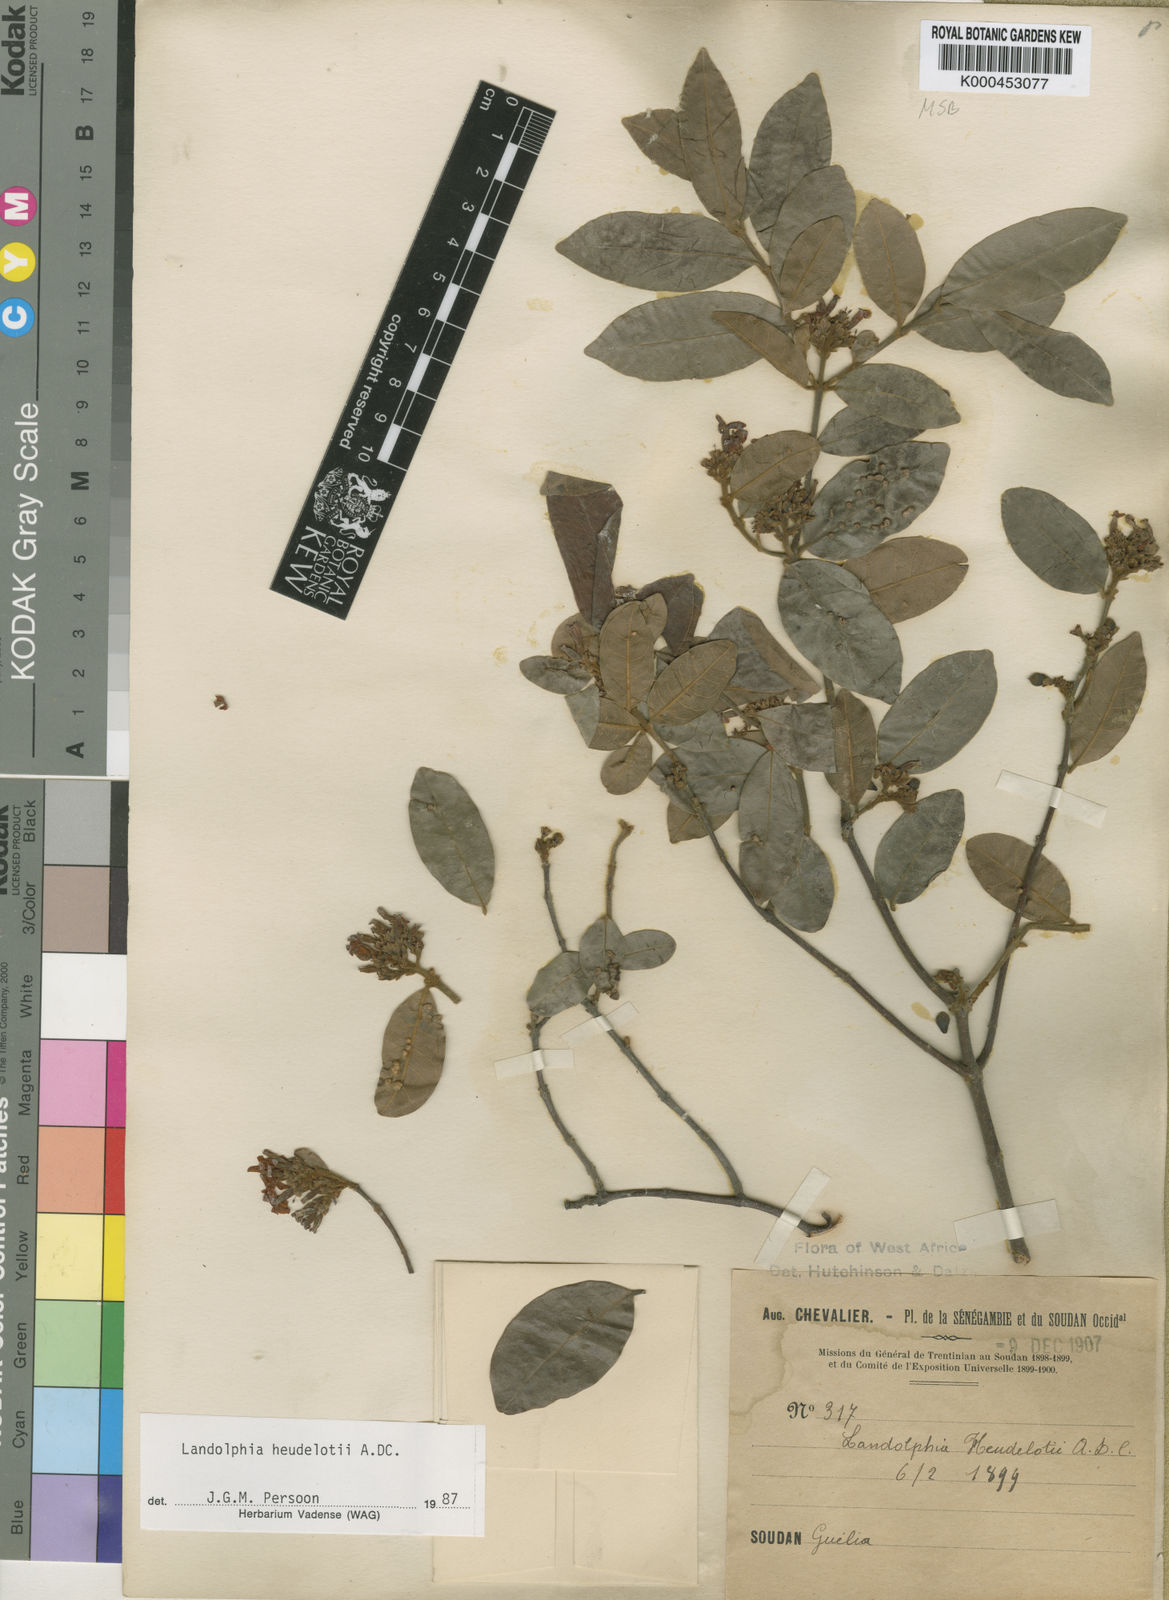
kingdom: Plantae
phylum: Tracheophyta
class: Magnoliopsida
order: Gentianales
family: Apocynaceae
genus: Landolphia
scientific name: Landolphia heudelotii
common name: Landolphia-rubber
